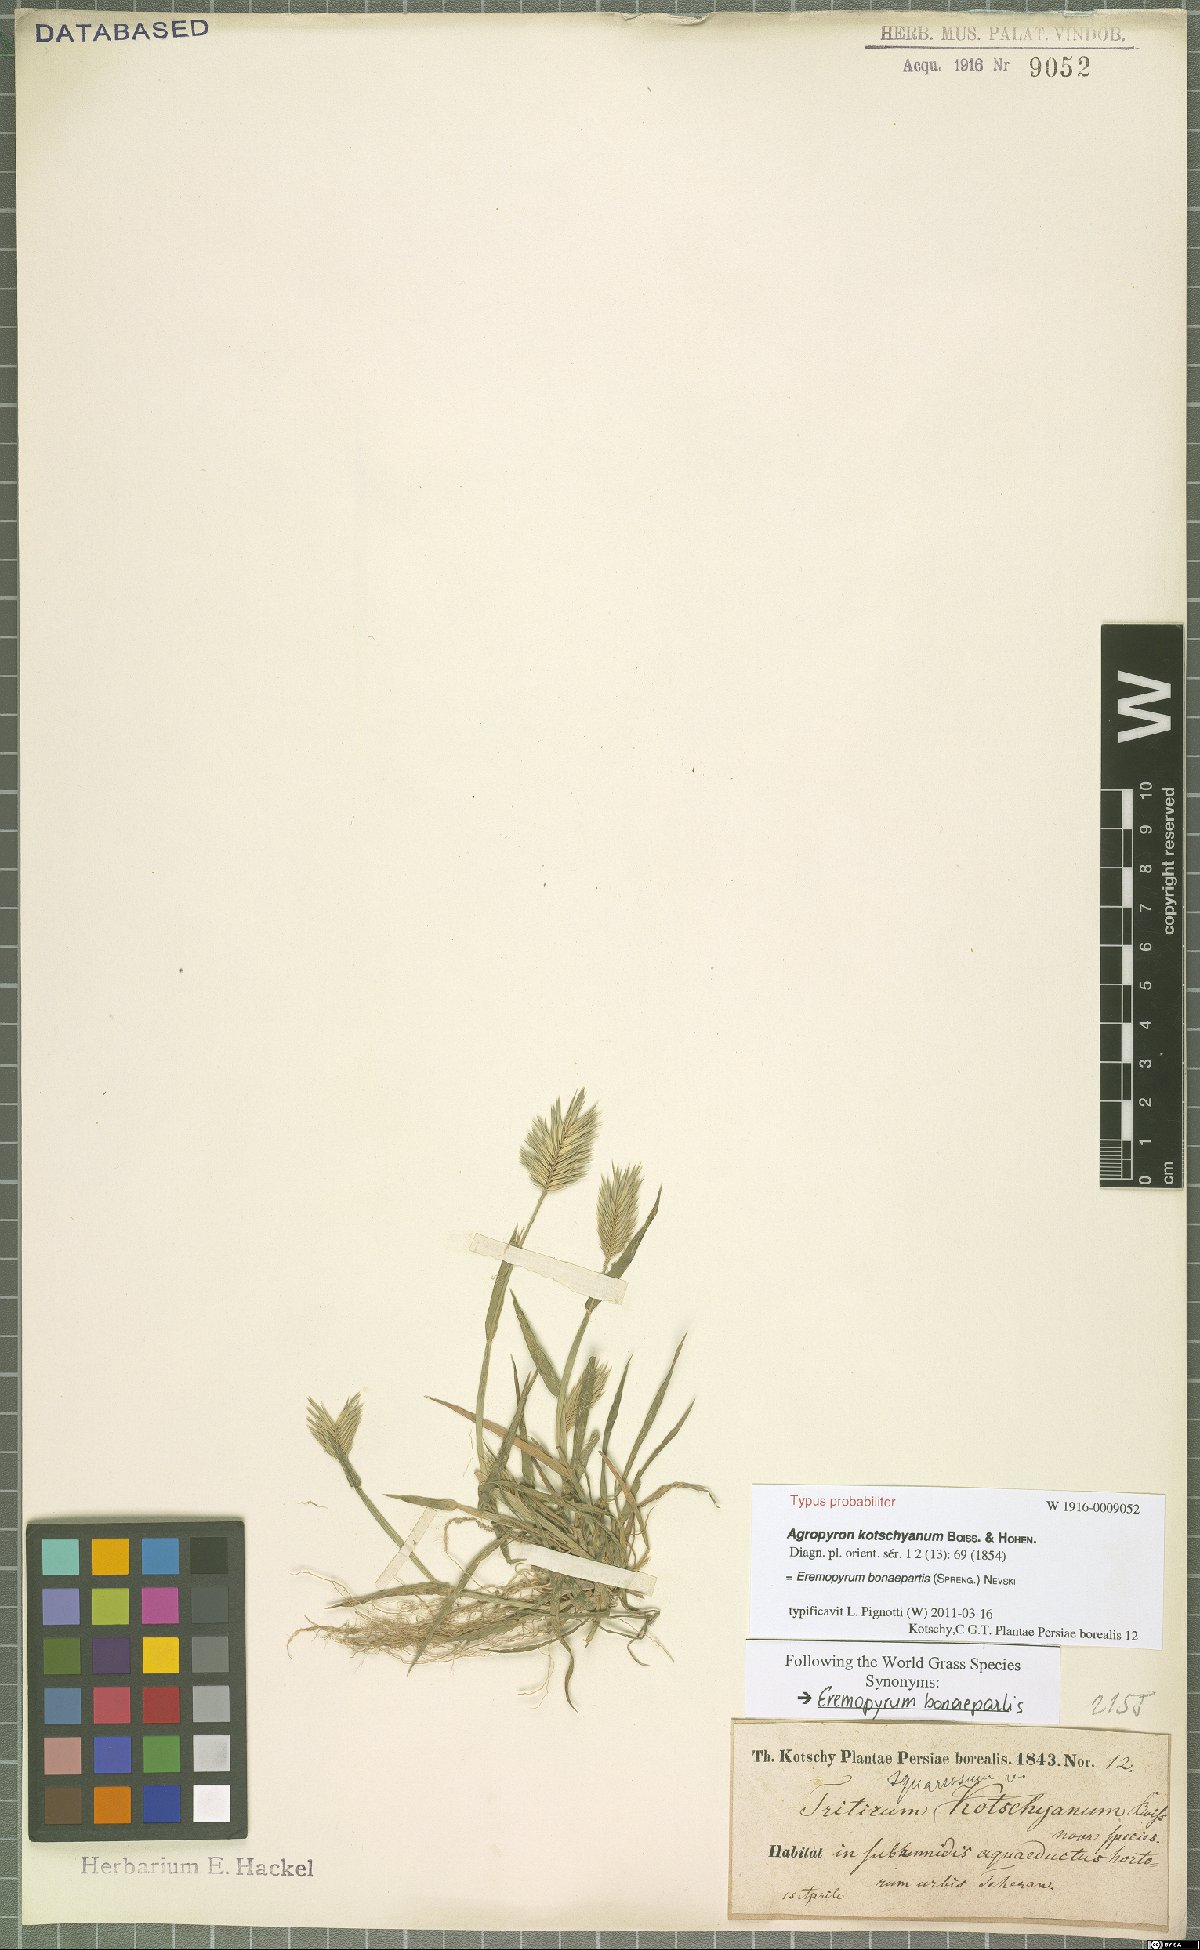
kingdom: Plantae
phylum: Tracheophyta
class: Liliopsida
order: Poales
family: Poaceae
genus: Eremopyrum
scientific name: Eremopyrum bonaepartis
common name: Tapertip false wheatgrass
